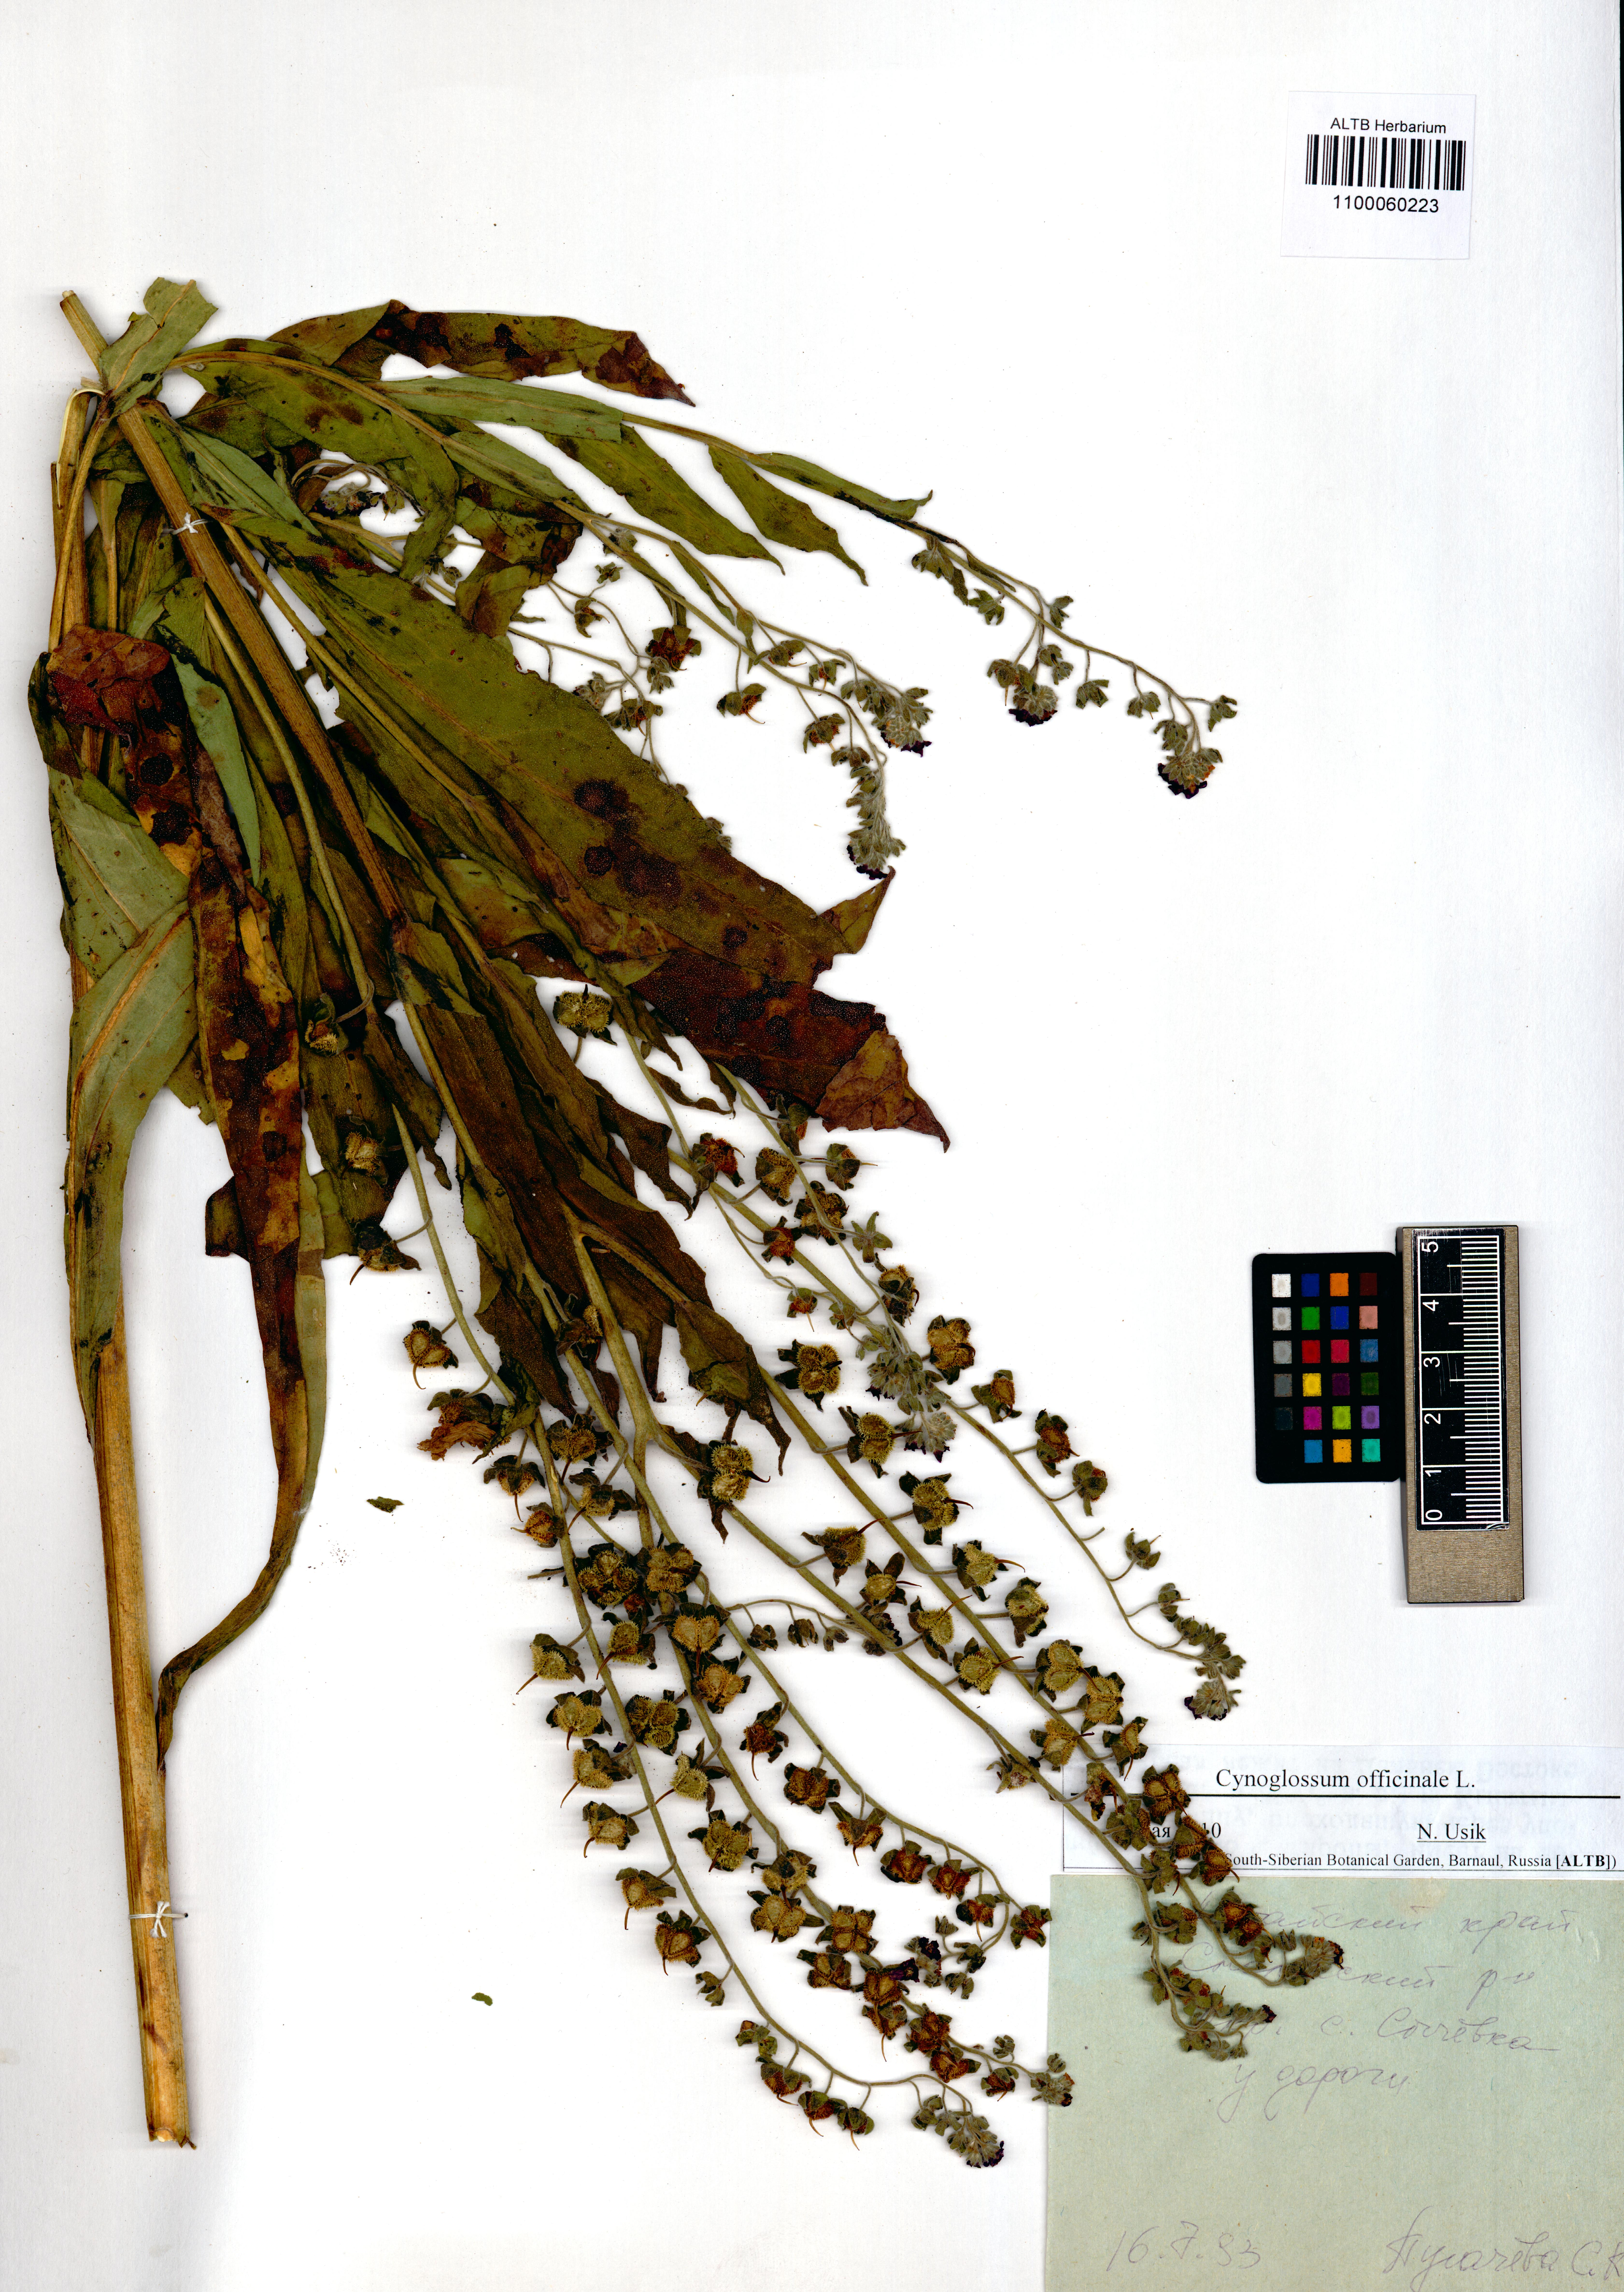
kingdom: Plantae
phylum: Tracheophyta
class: Magnoliopsida
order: Boraginales
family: Boraginaceae
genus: Cynoglossum
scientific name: Cynoglossum officinale
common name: Hound's-tongue
